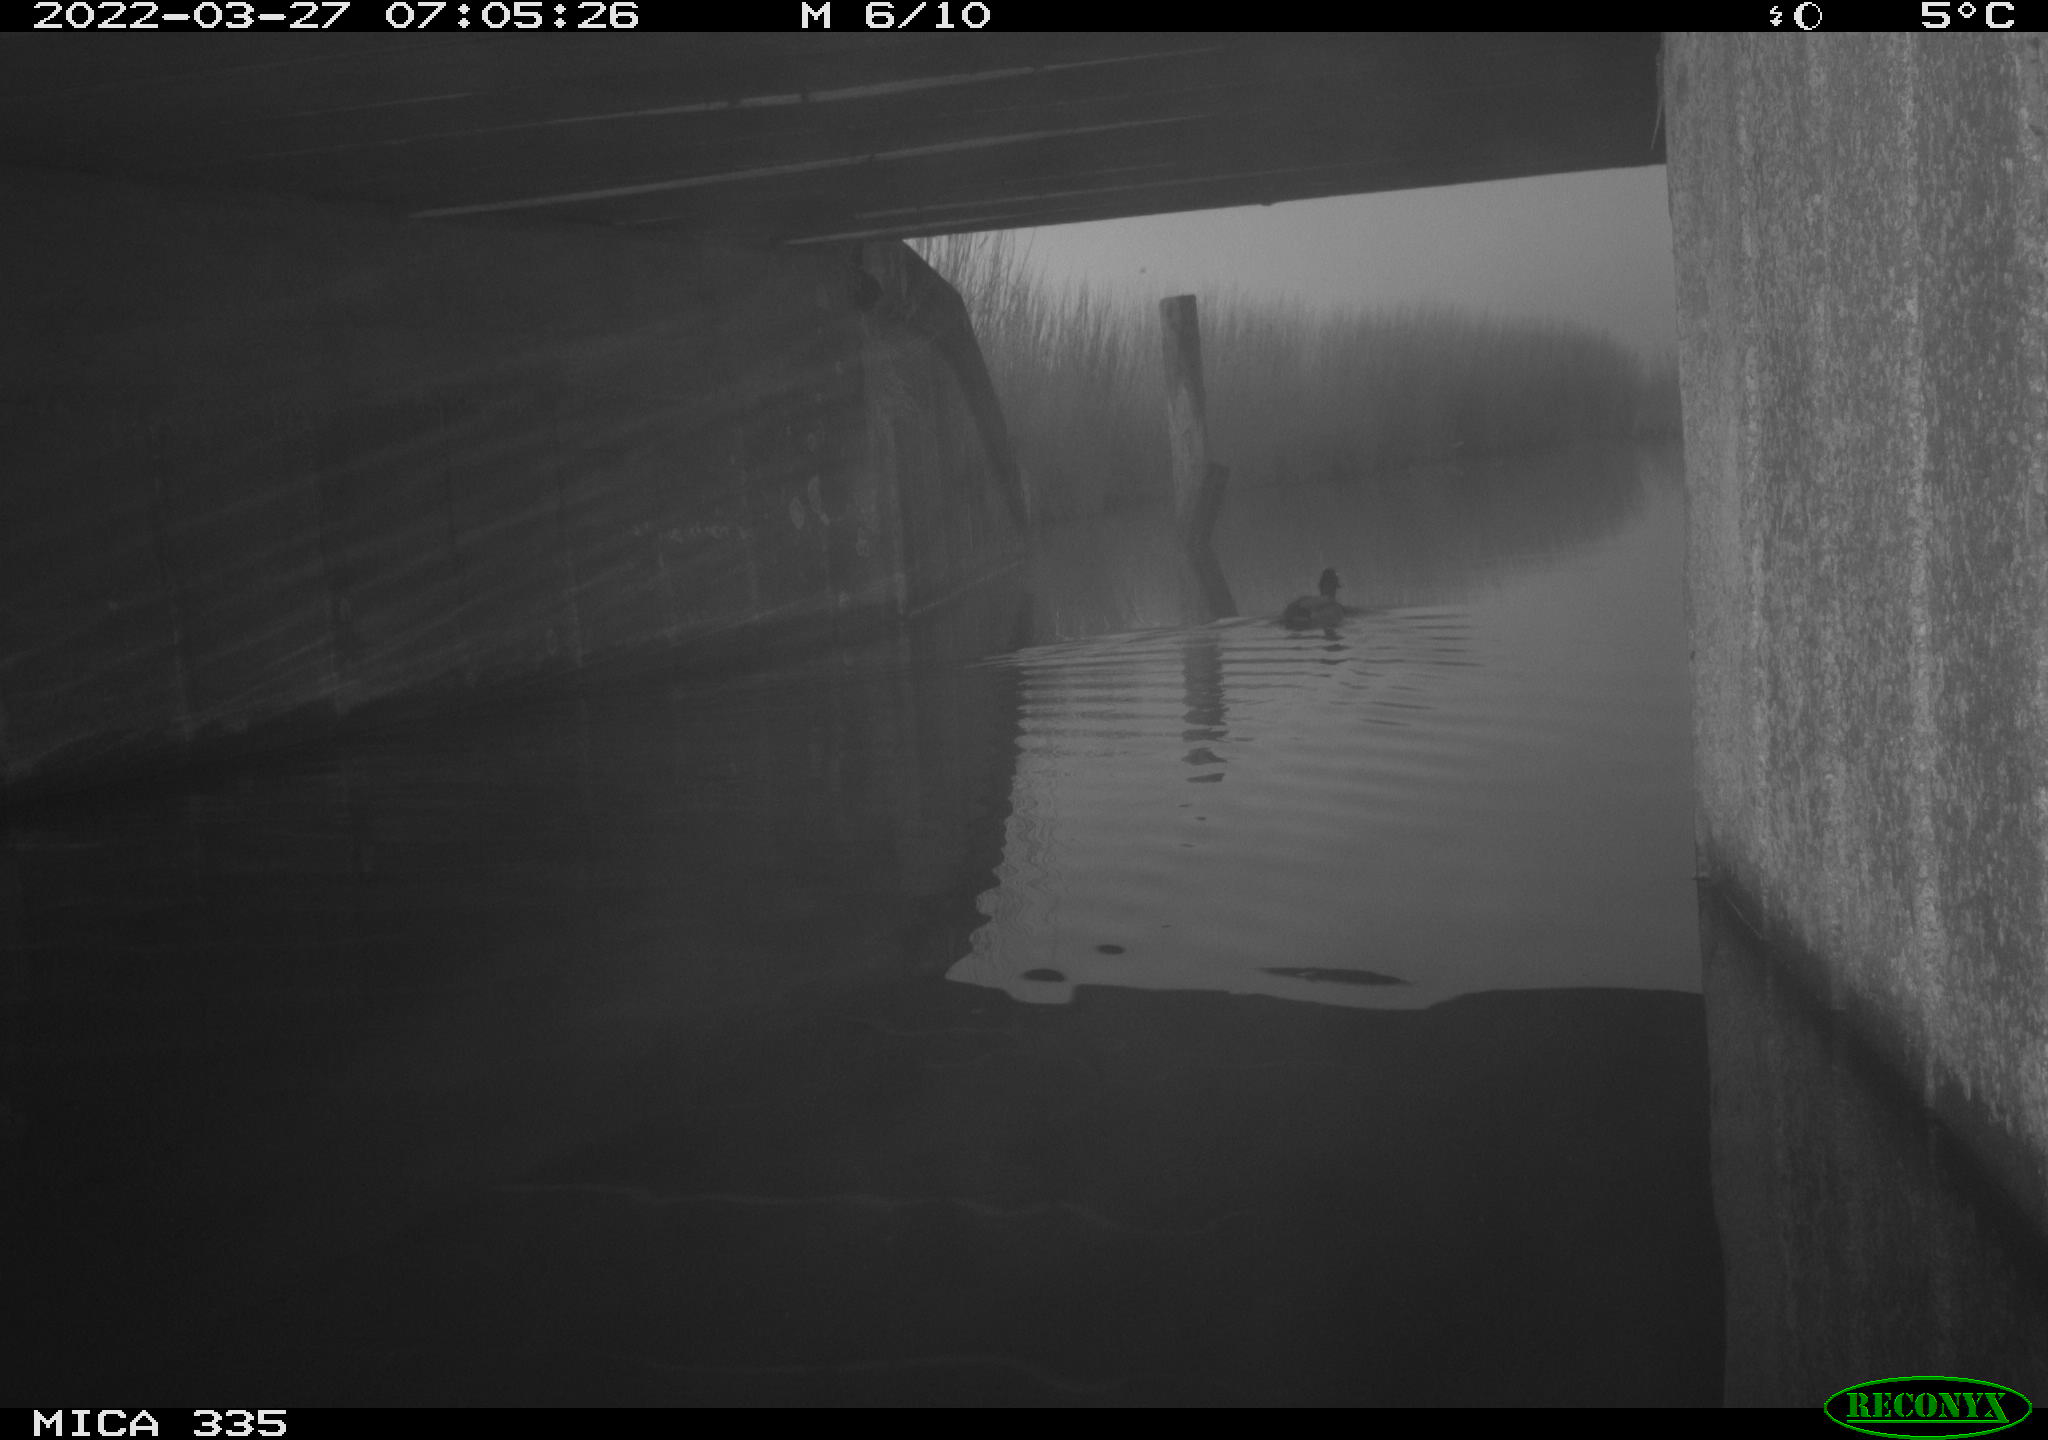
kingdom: Animalia
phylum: Chordata
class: Aves
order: Anseriformes
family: Anatidae
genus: Anas
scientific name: Anas platyrhynchos
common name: Mallard
